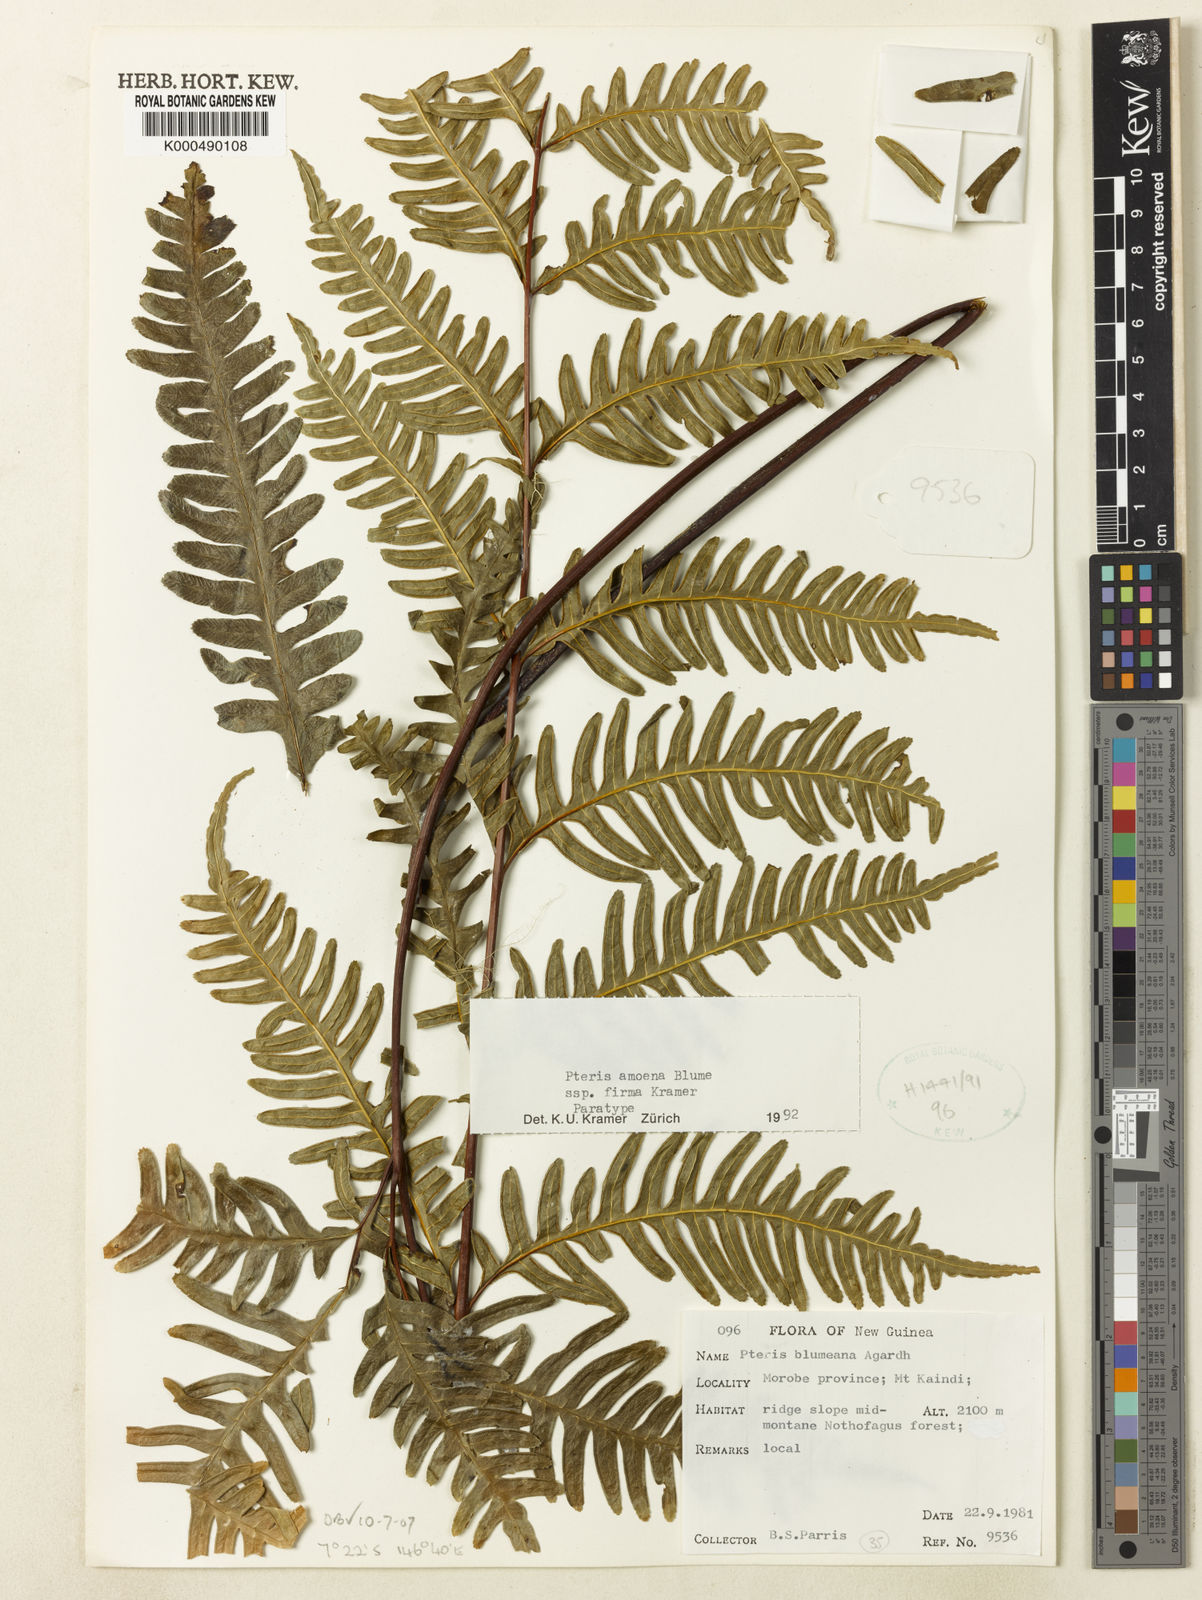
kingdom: Plantae
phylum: Tracheophyta
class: Polypodiopsida
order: Polypodiales
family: Pteridaceae
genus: Pteris
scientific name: Pteris amoena
